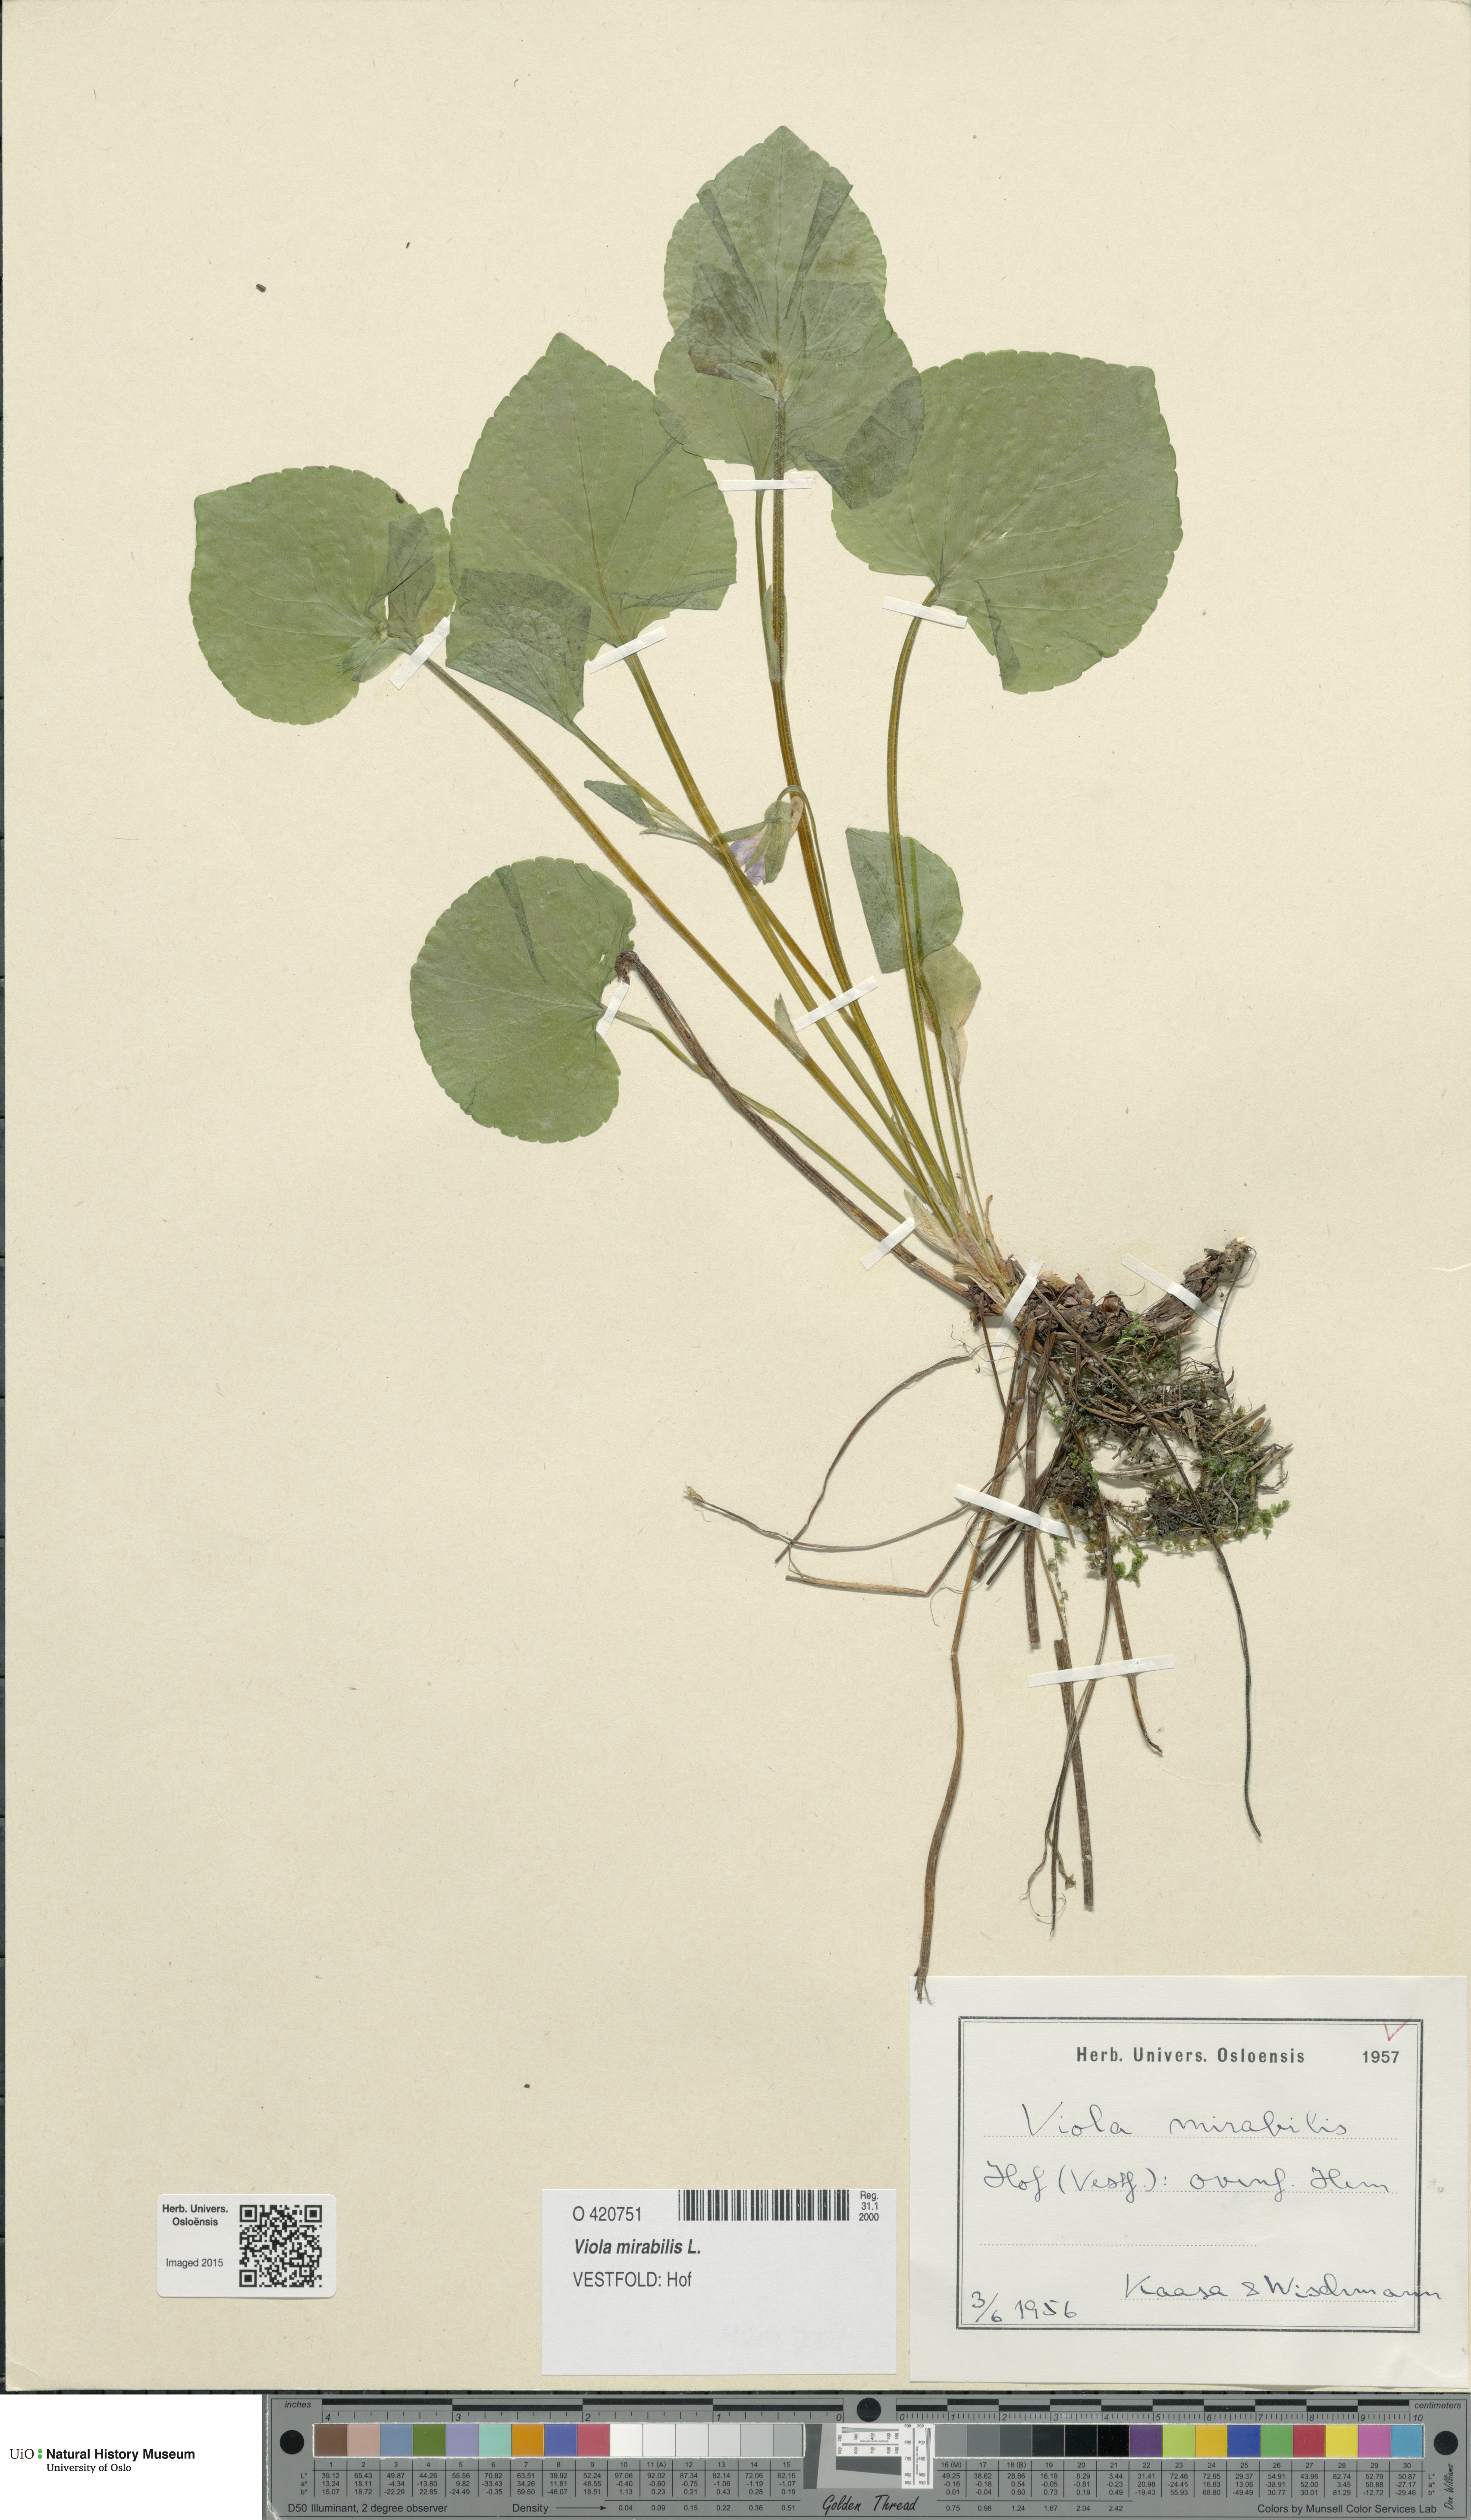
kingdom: Plantae
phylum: Tracheophyta
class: Magnoliopsida
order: Malpighiales
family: Violaceae
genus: Viola
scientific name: Viola mirabilis
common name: Wonder violet
